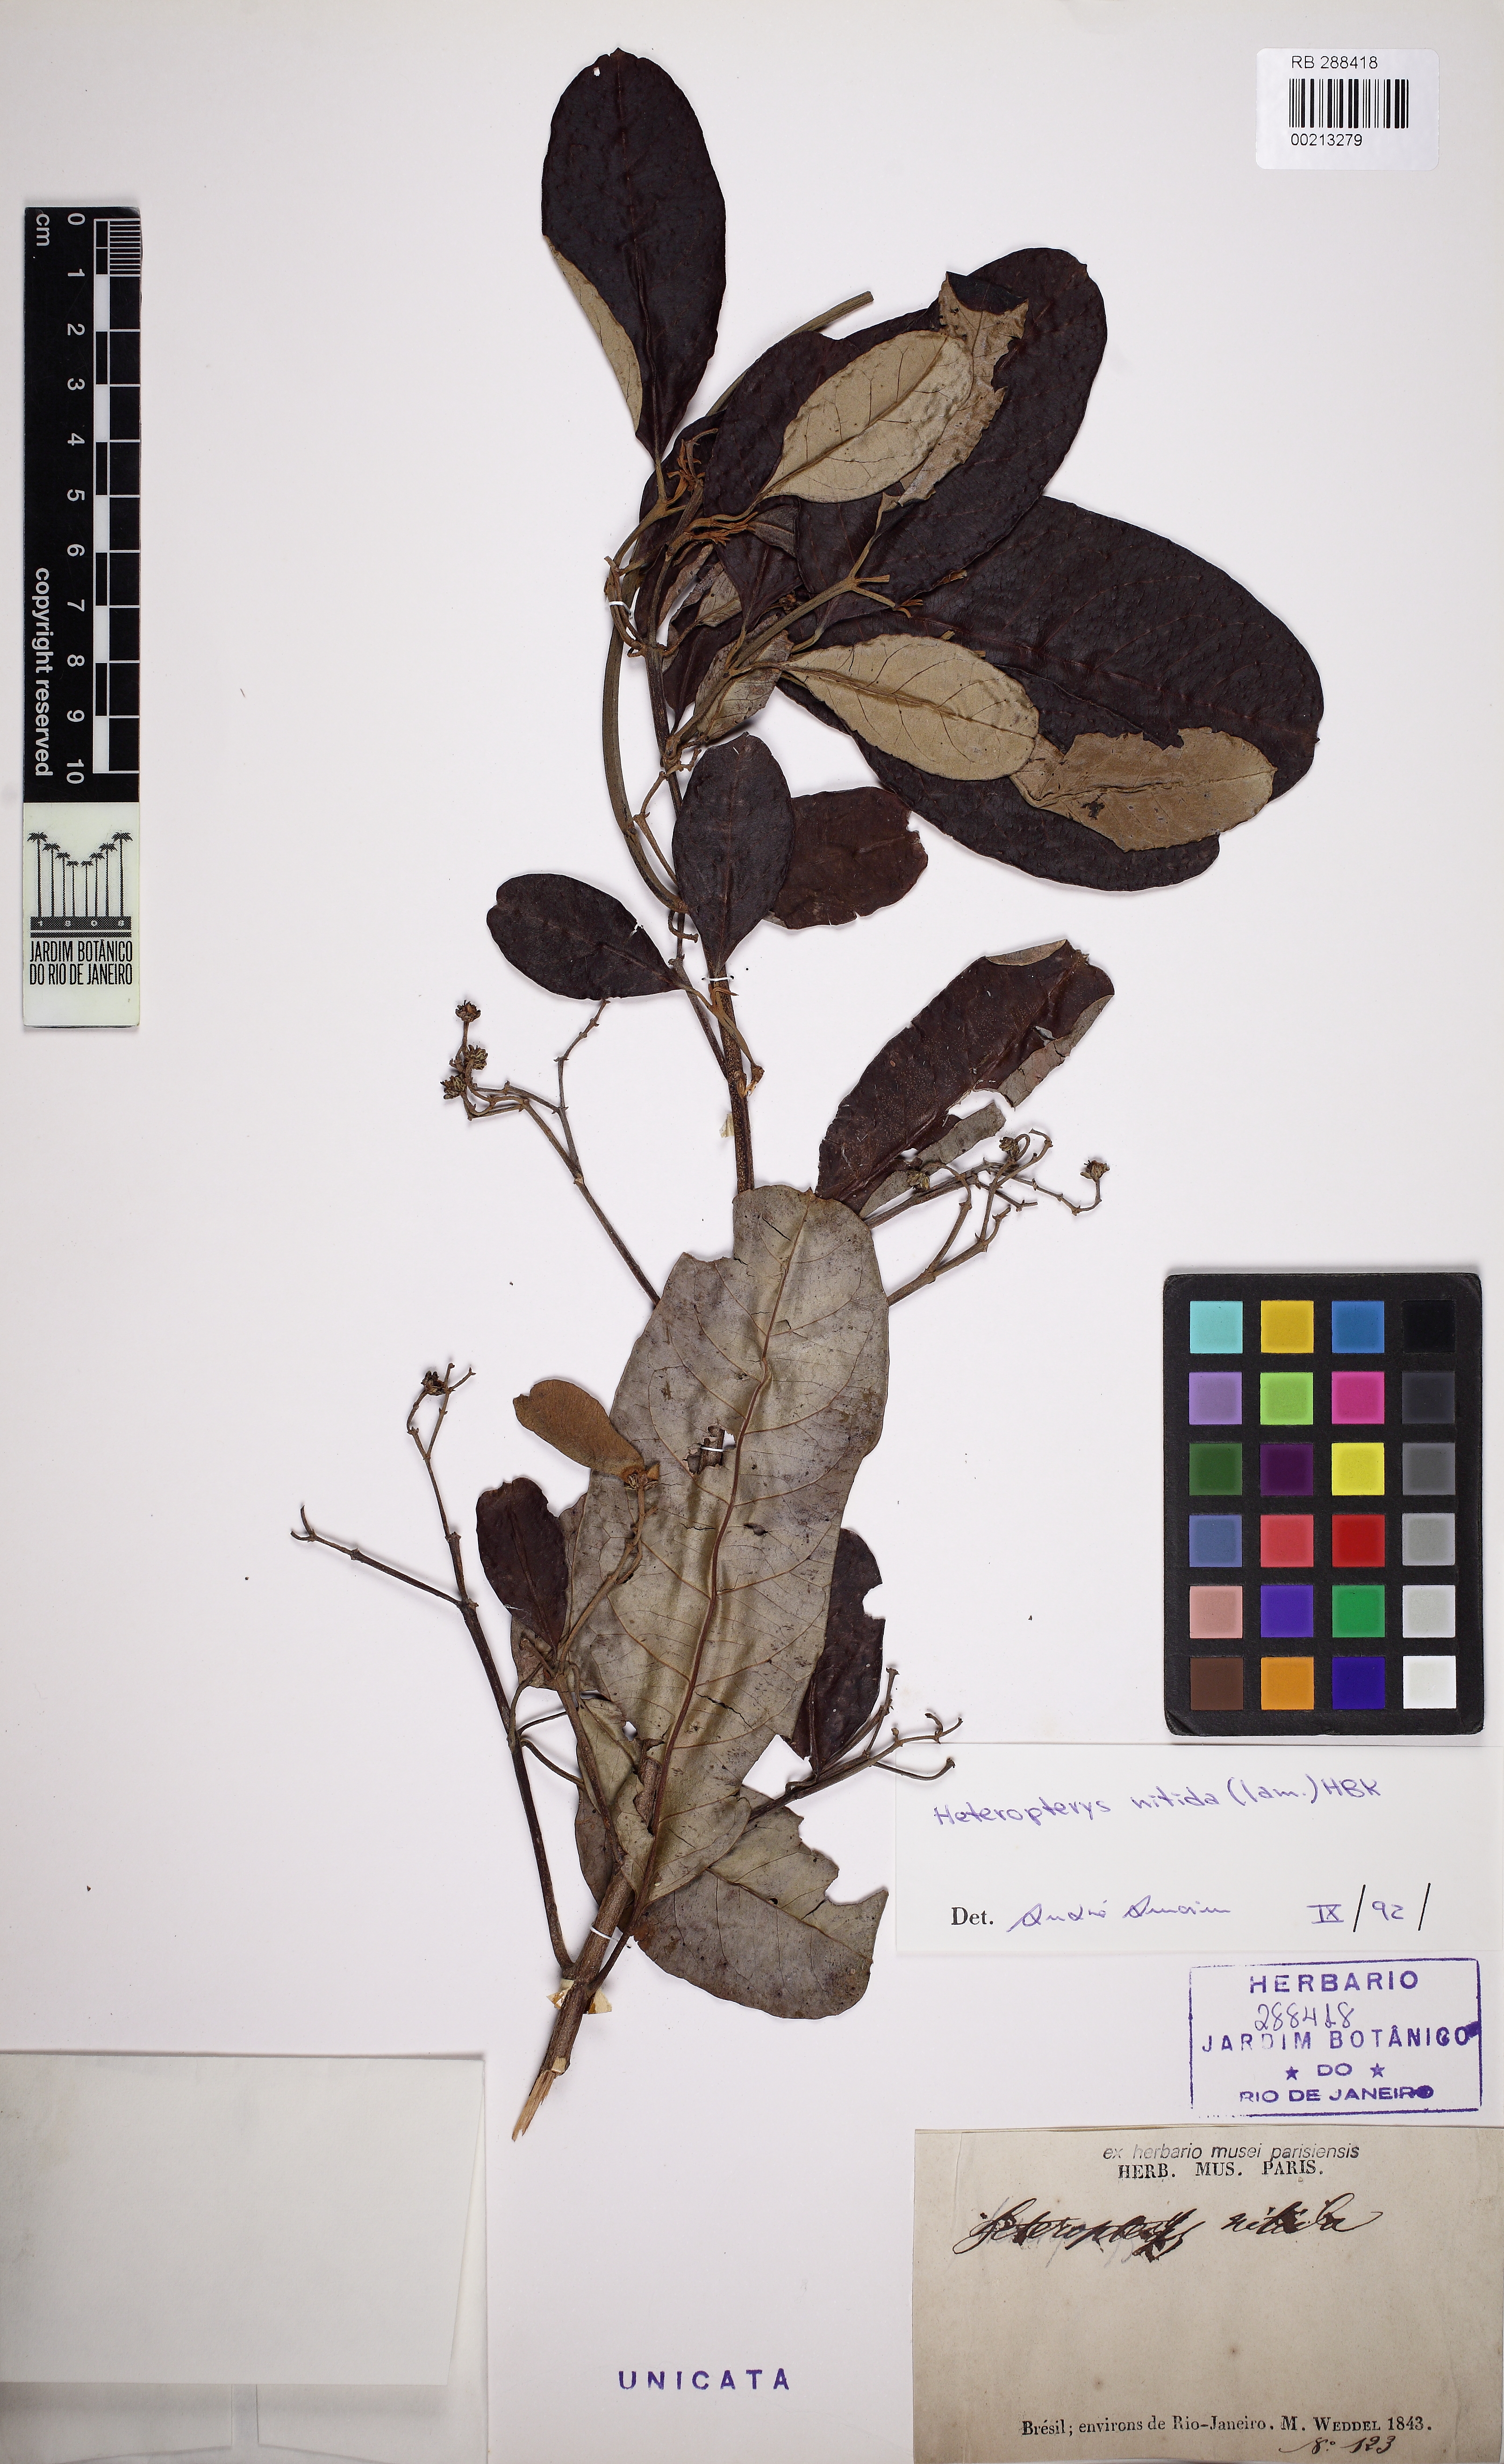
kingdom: Plantae
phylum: Tracheophyta
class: Magnoliopsida
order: Malpighiales
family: Malpighiaceae
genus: Heteropterys
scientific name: Heteropterys nitida
